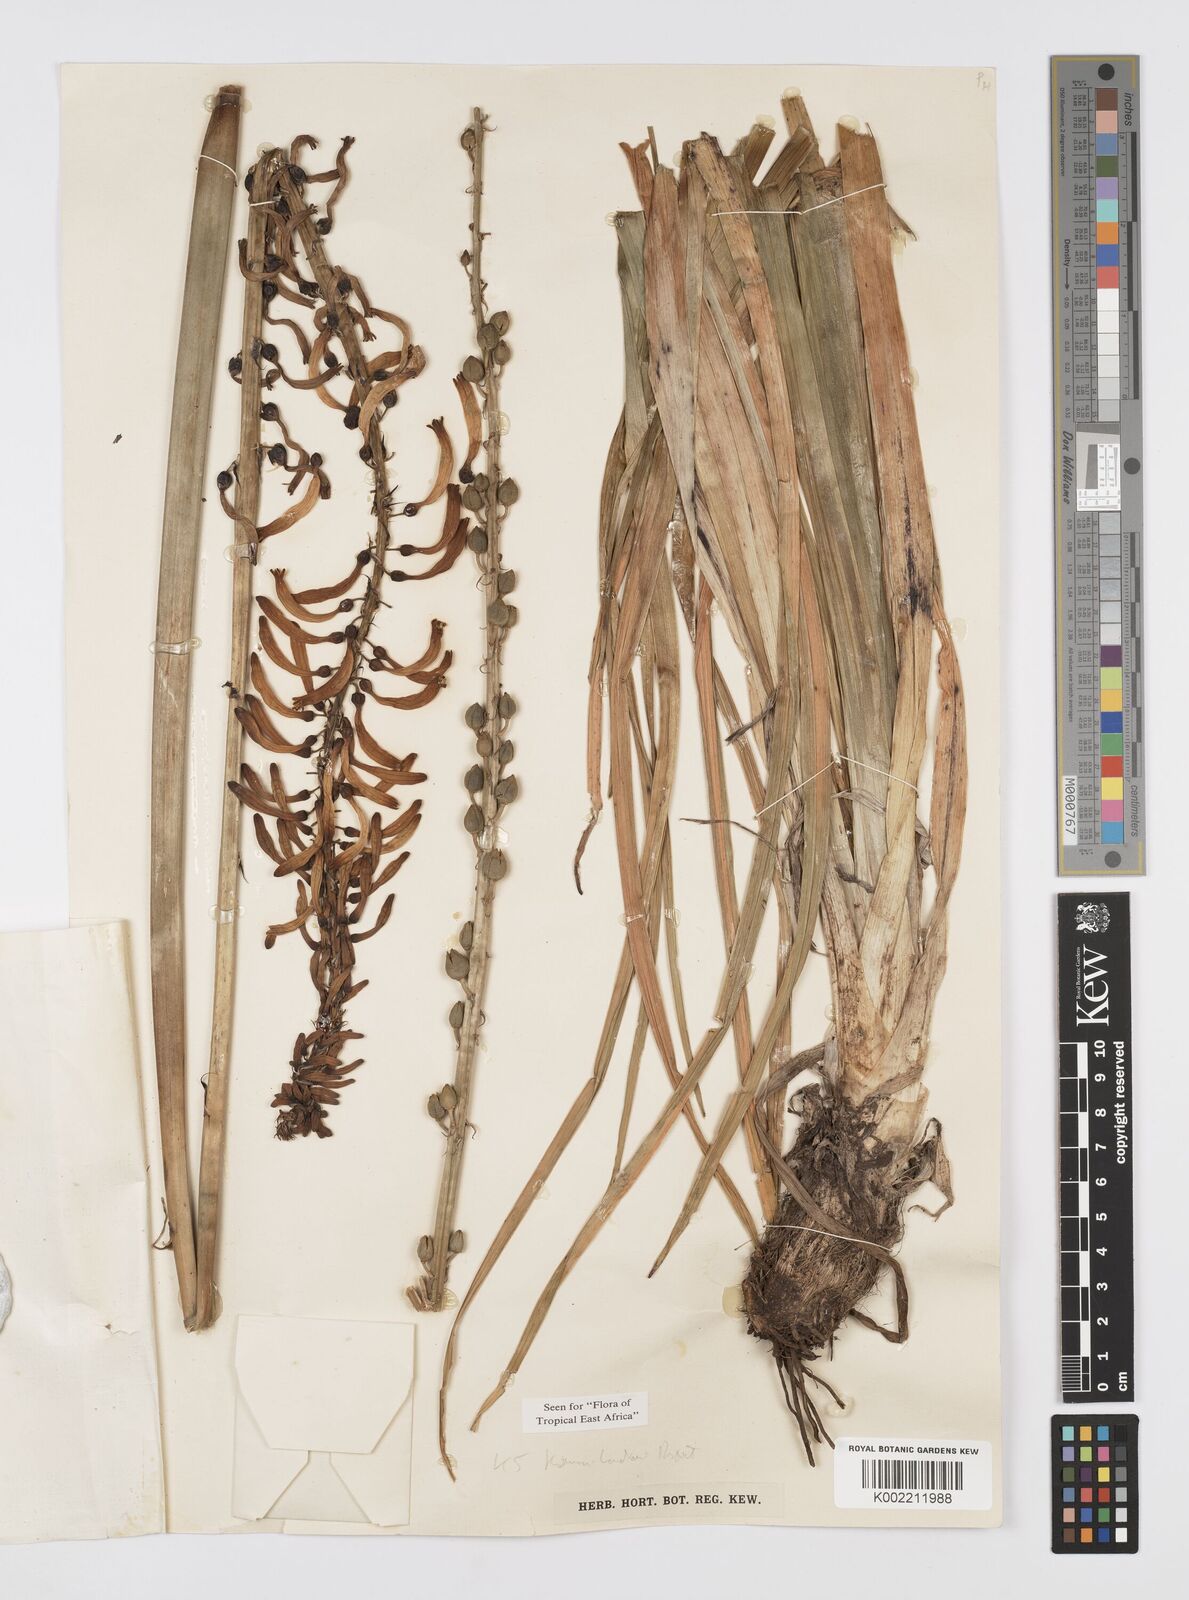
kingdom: Plantae
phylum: Tracheophyta
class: Liliopsida
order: Asparagales
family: Asphodelaceae
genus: Kniphofia
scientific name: Kniphofia thomsonii
